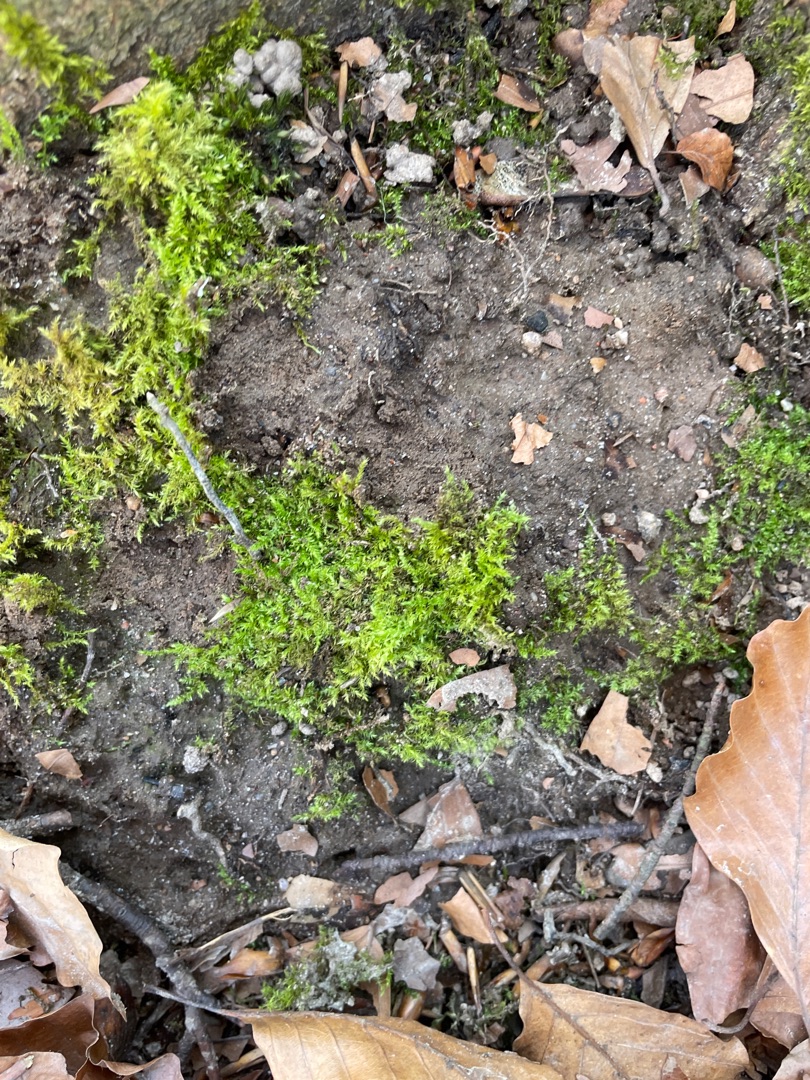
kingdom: Plantae
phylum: Bryophyta
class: Bryopsida
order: Hypnales
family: Brachytheciaceae
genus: Oxyrrhynchium
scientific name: Oxyrrhynchium hians
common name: Ler-vortetand
